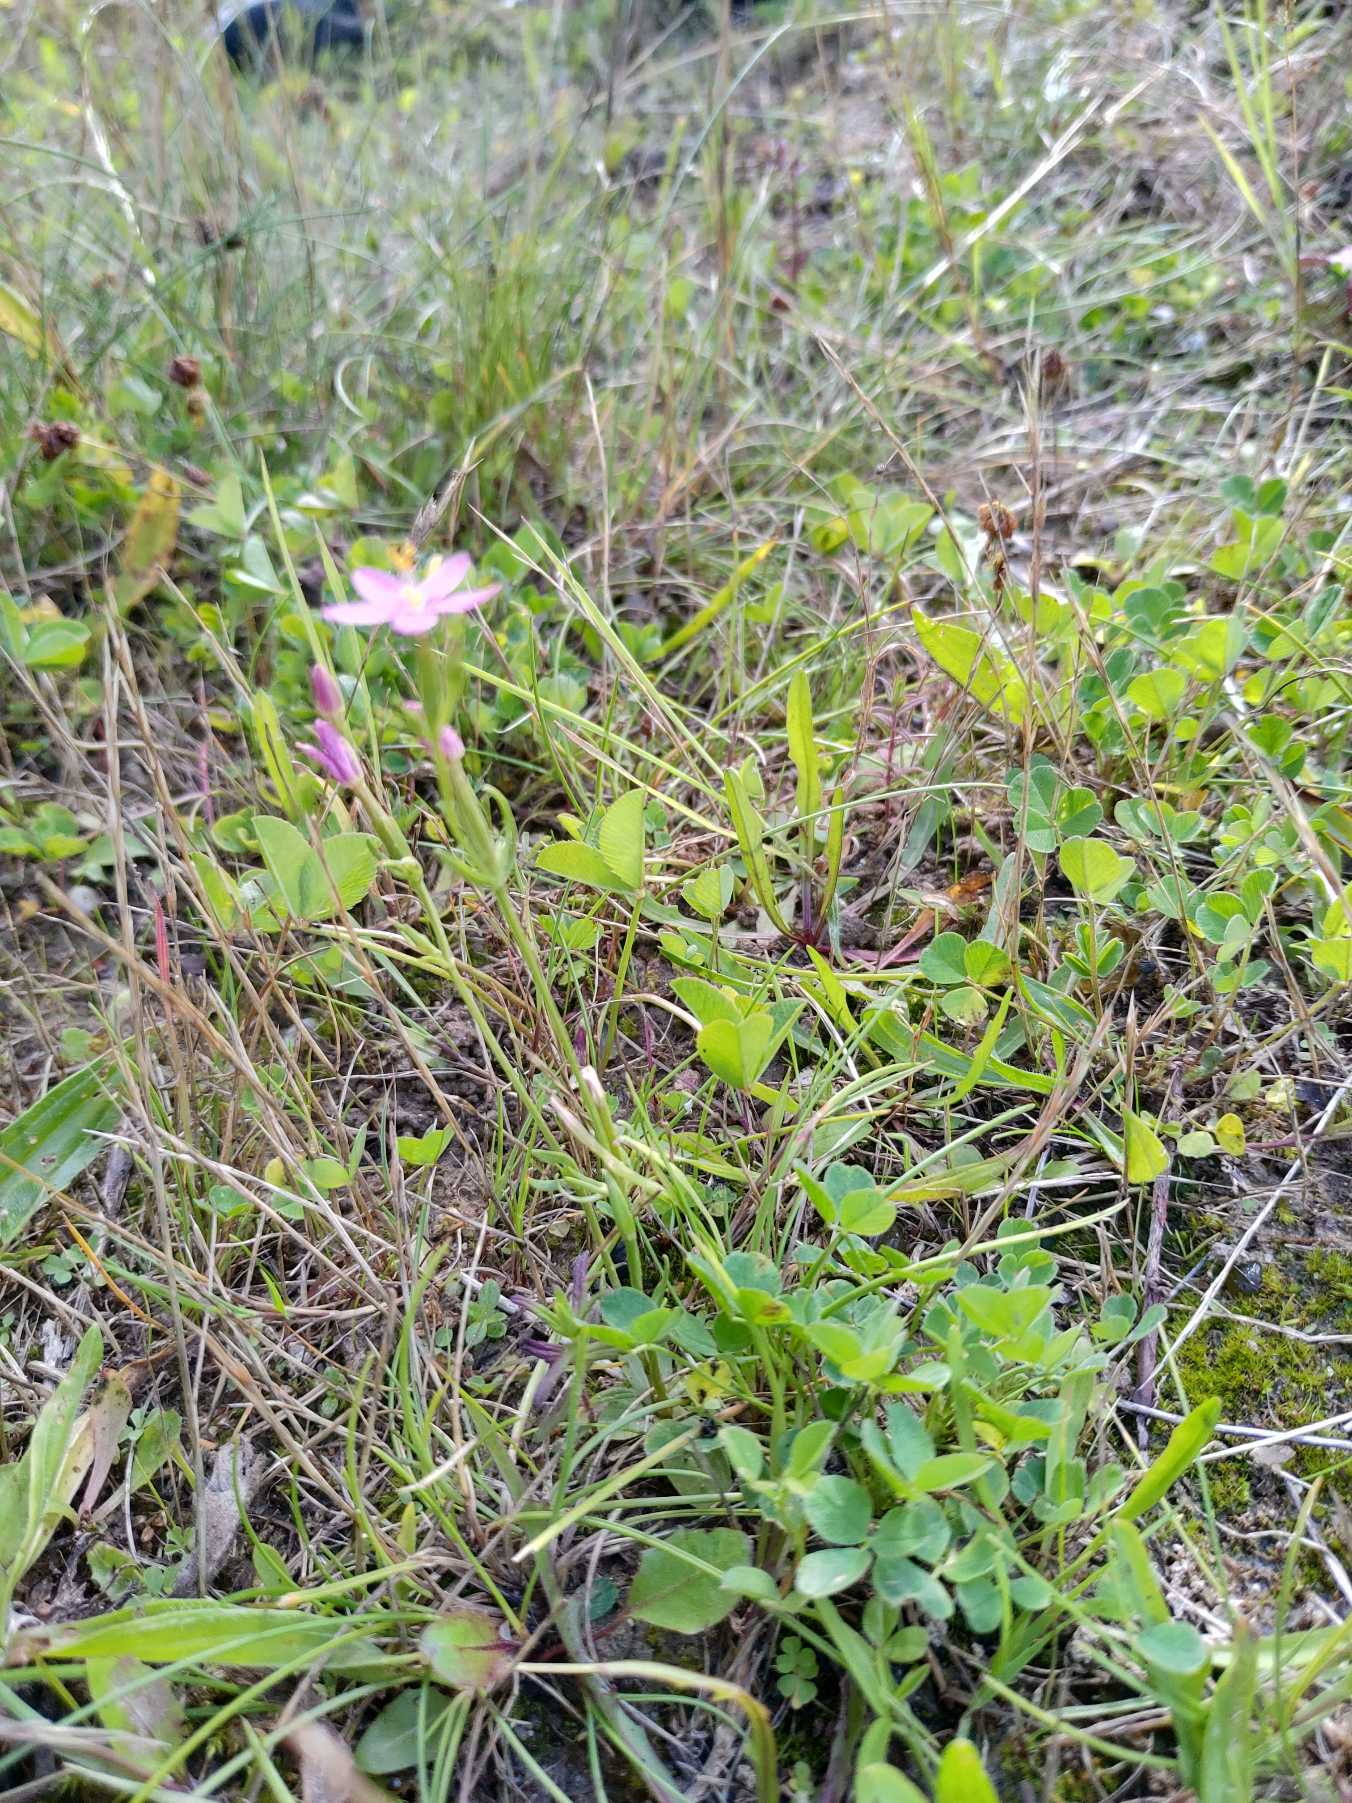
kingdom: Plantae
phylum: Tracheophyta
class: Magnoliopsida
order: Gentianales
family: Gentianaceae
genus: Centaurium
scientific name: Centaurium erythraea
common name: Mark-tusindgylden
